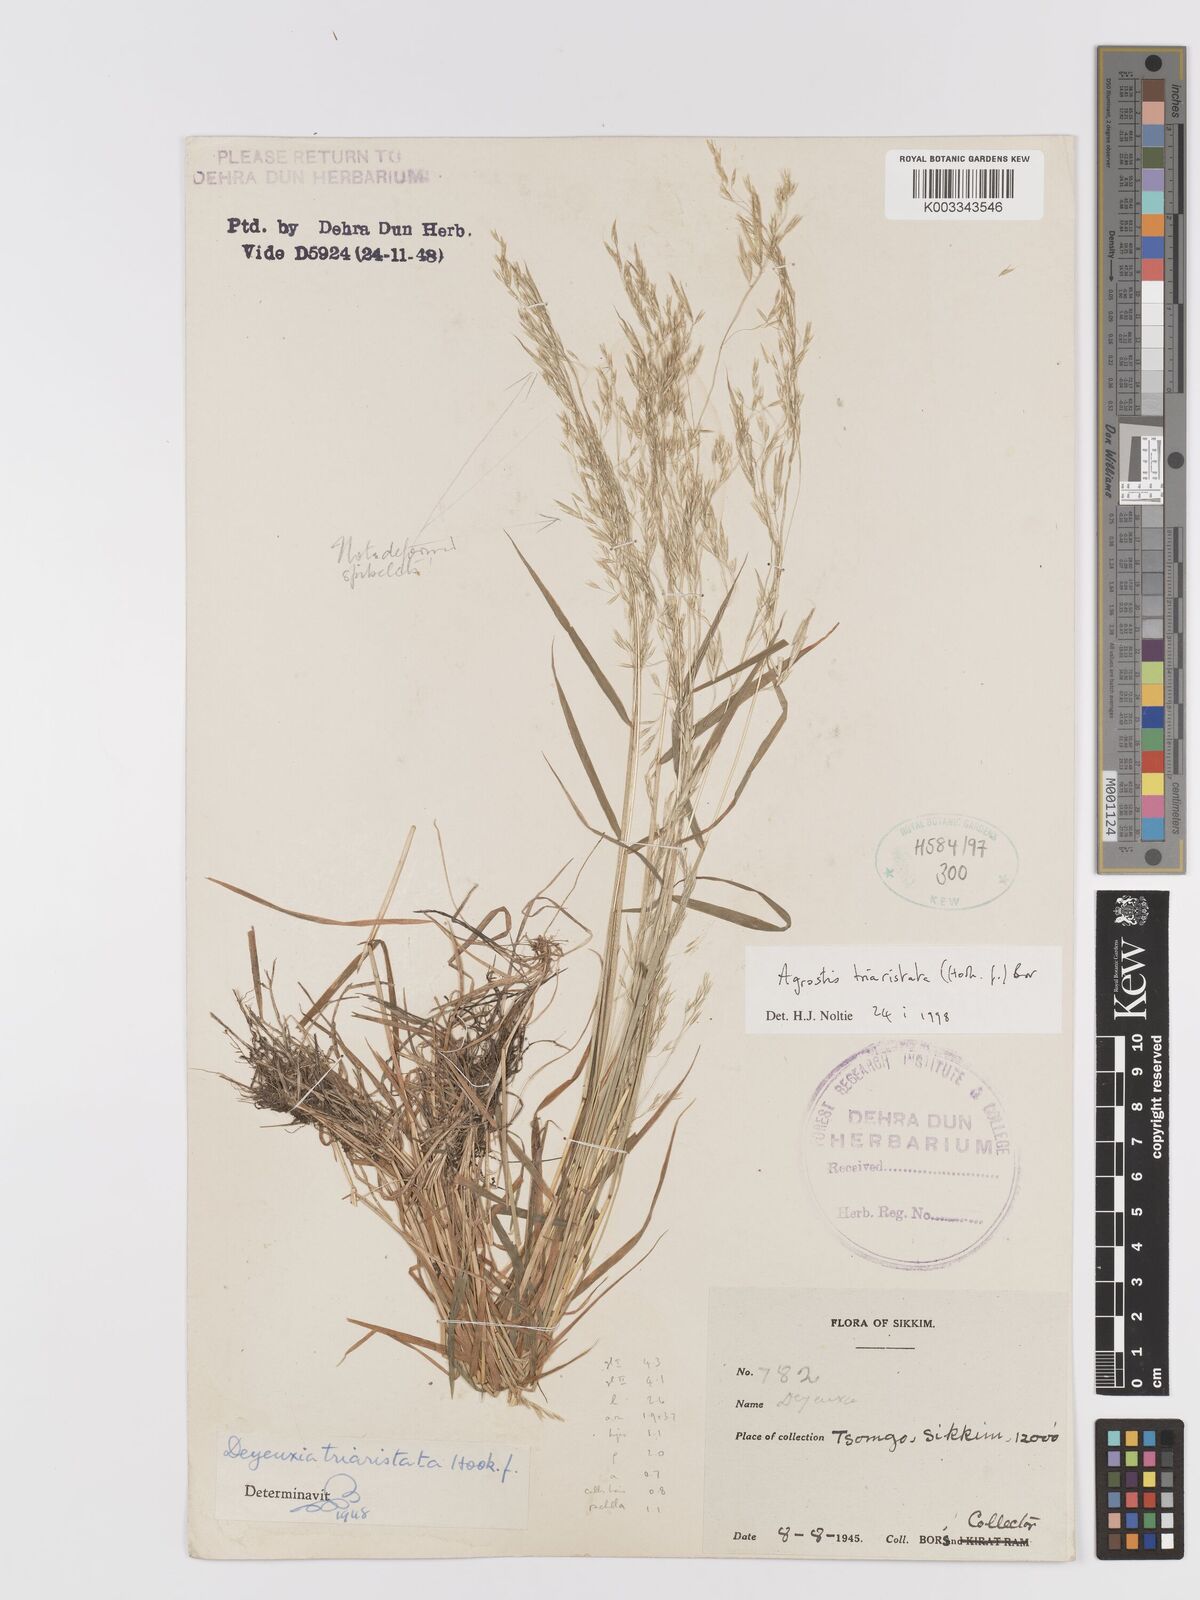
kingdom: Plantae
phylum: Tracheophyta
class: Liliopsida
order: Poales
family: Poaceae
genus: Agrostis
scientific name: Agrostis
